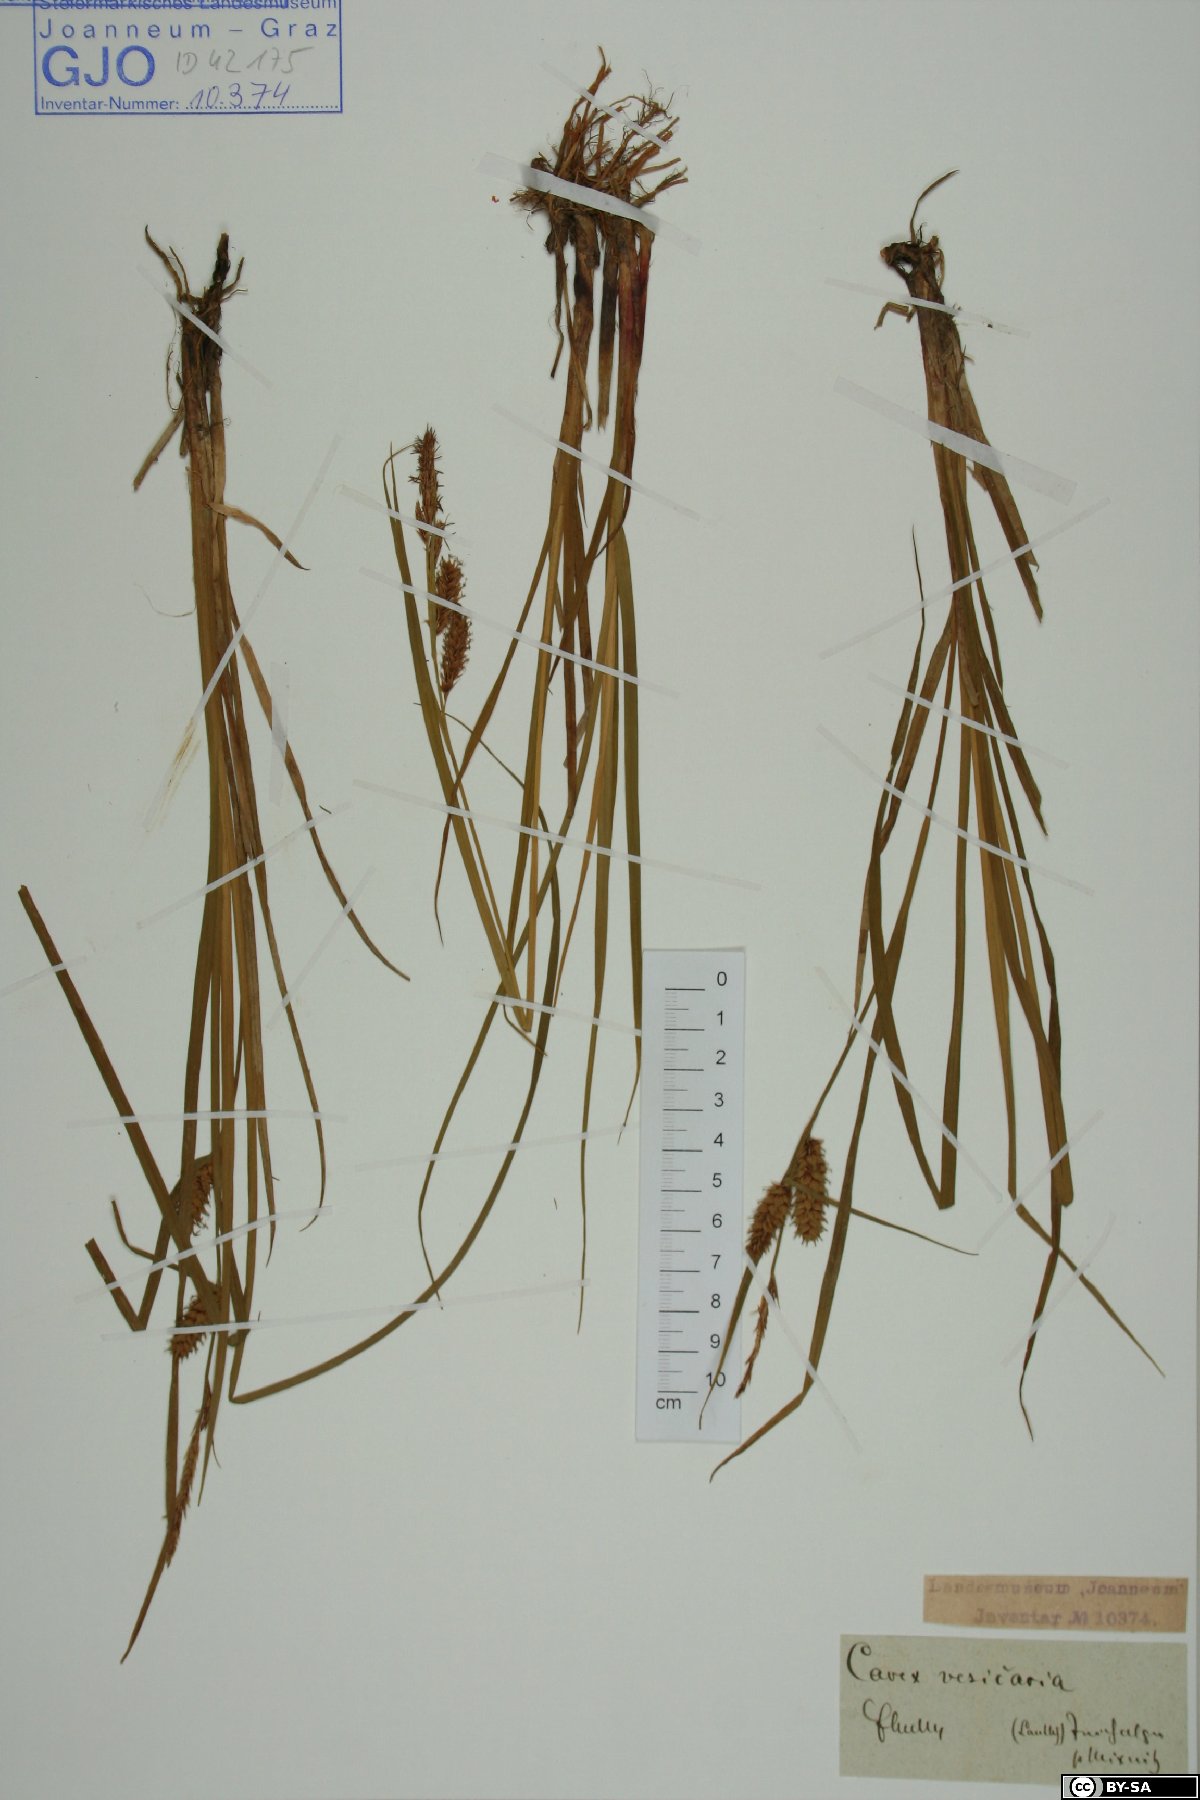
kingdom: Plantae
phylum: Tracheophyta
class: Liliopsida
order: Poales
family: Cyperaceae
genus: Carex
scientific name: Carex vesicaria
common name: Bladder-sedge
